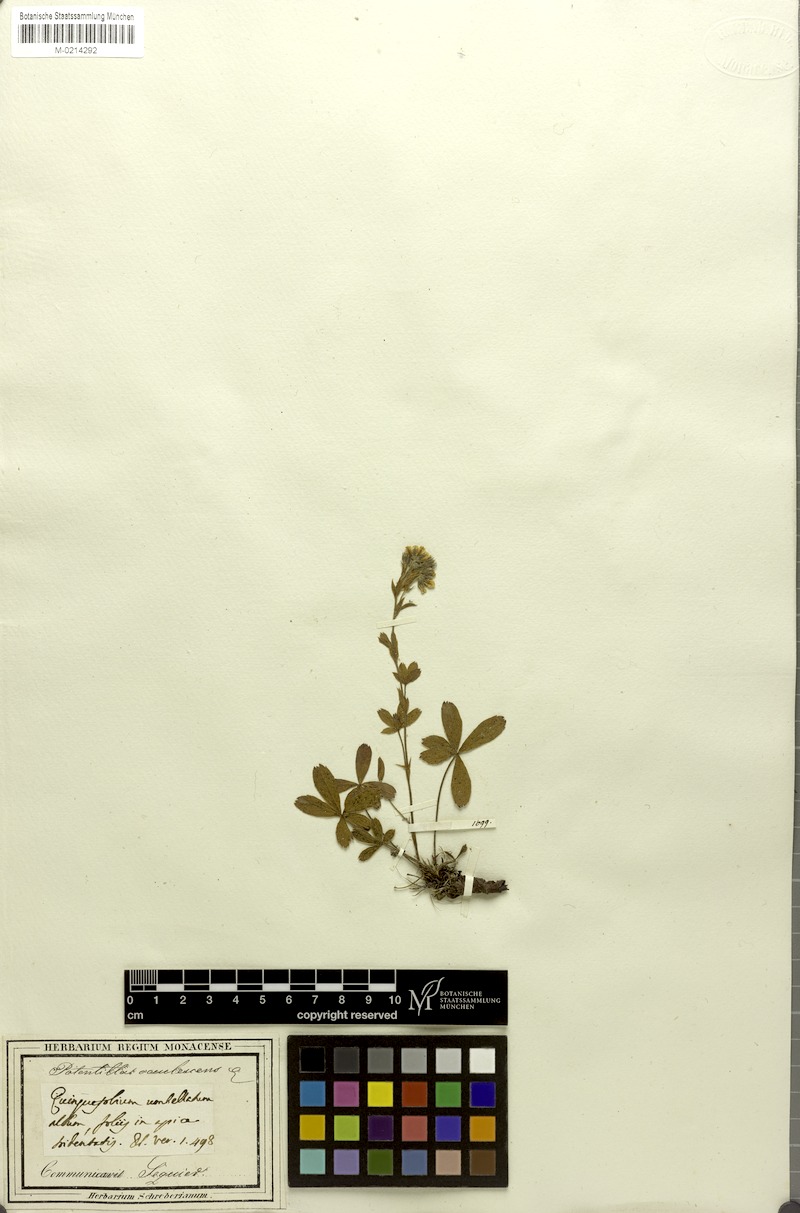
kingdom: Plantae
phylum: Tracheophyta
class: Magnoliopsida
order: Rosales
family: Rosaceae
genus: Potentilla
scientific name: Potentilla caulescens
